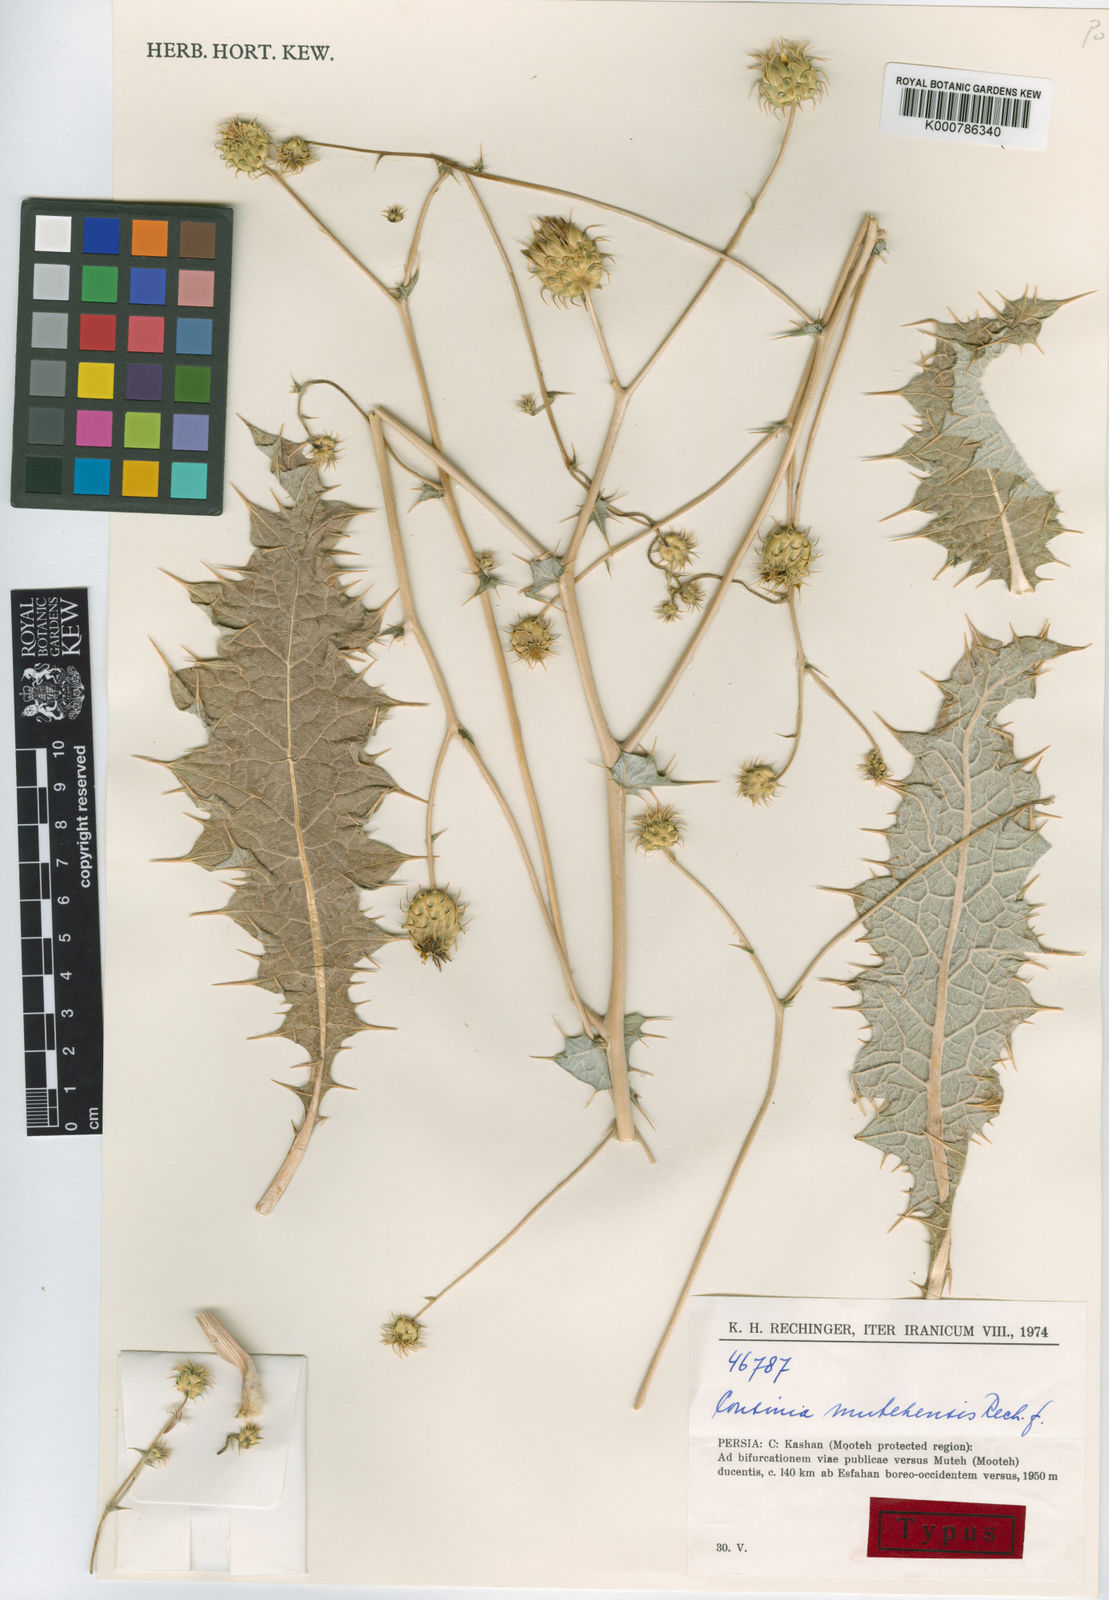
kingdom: Plantae
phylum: Tracheophyta
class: Magnoliopsida
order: Asterales
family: Asteraceae
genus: Cousinia
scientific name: Cousinia mutehensis
